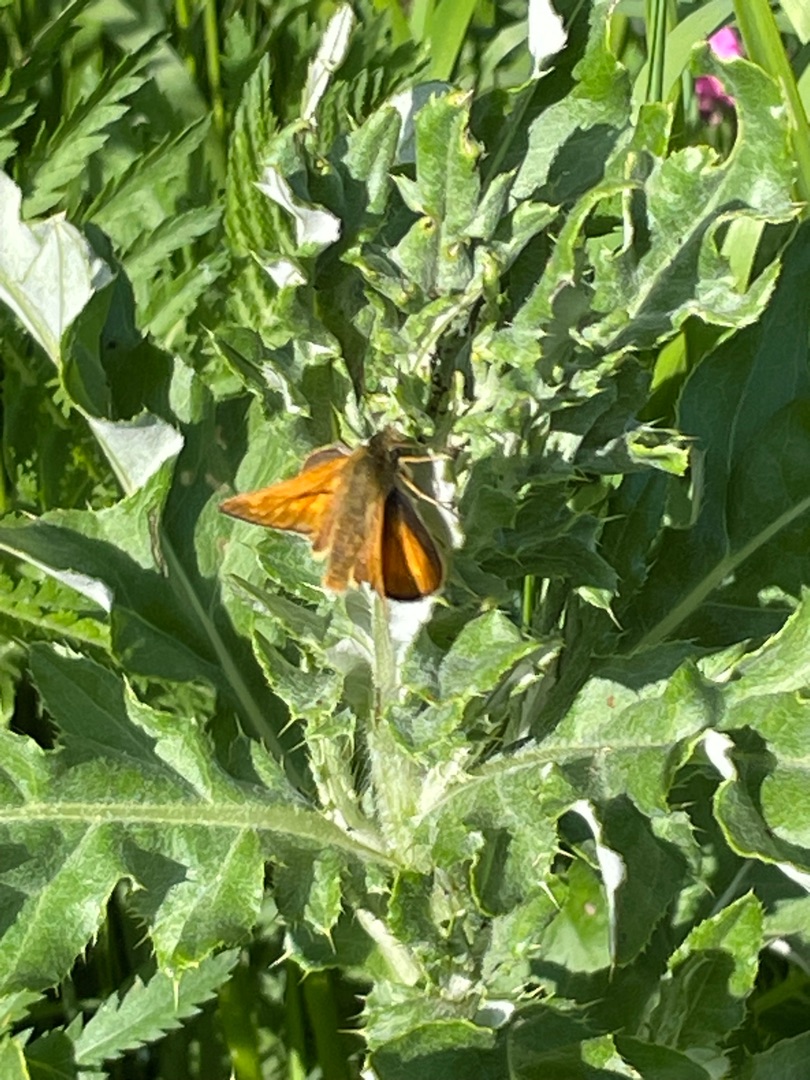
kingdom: Animalia
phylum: Arthropoda
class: Insecta
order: Lepidoptera
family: Hesperiidae
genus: Ochlodes
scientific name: Ochlodes venata
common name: Stor bredpande
